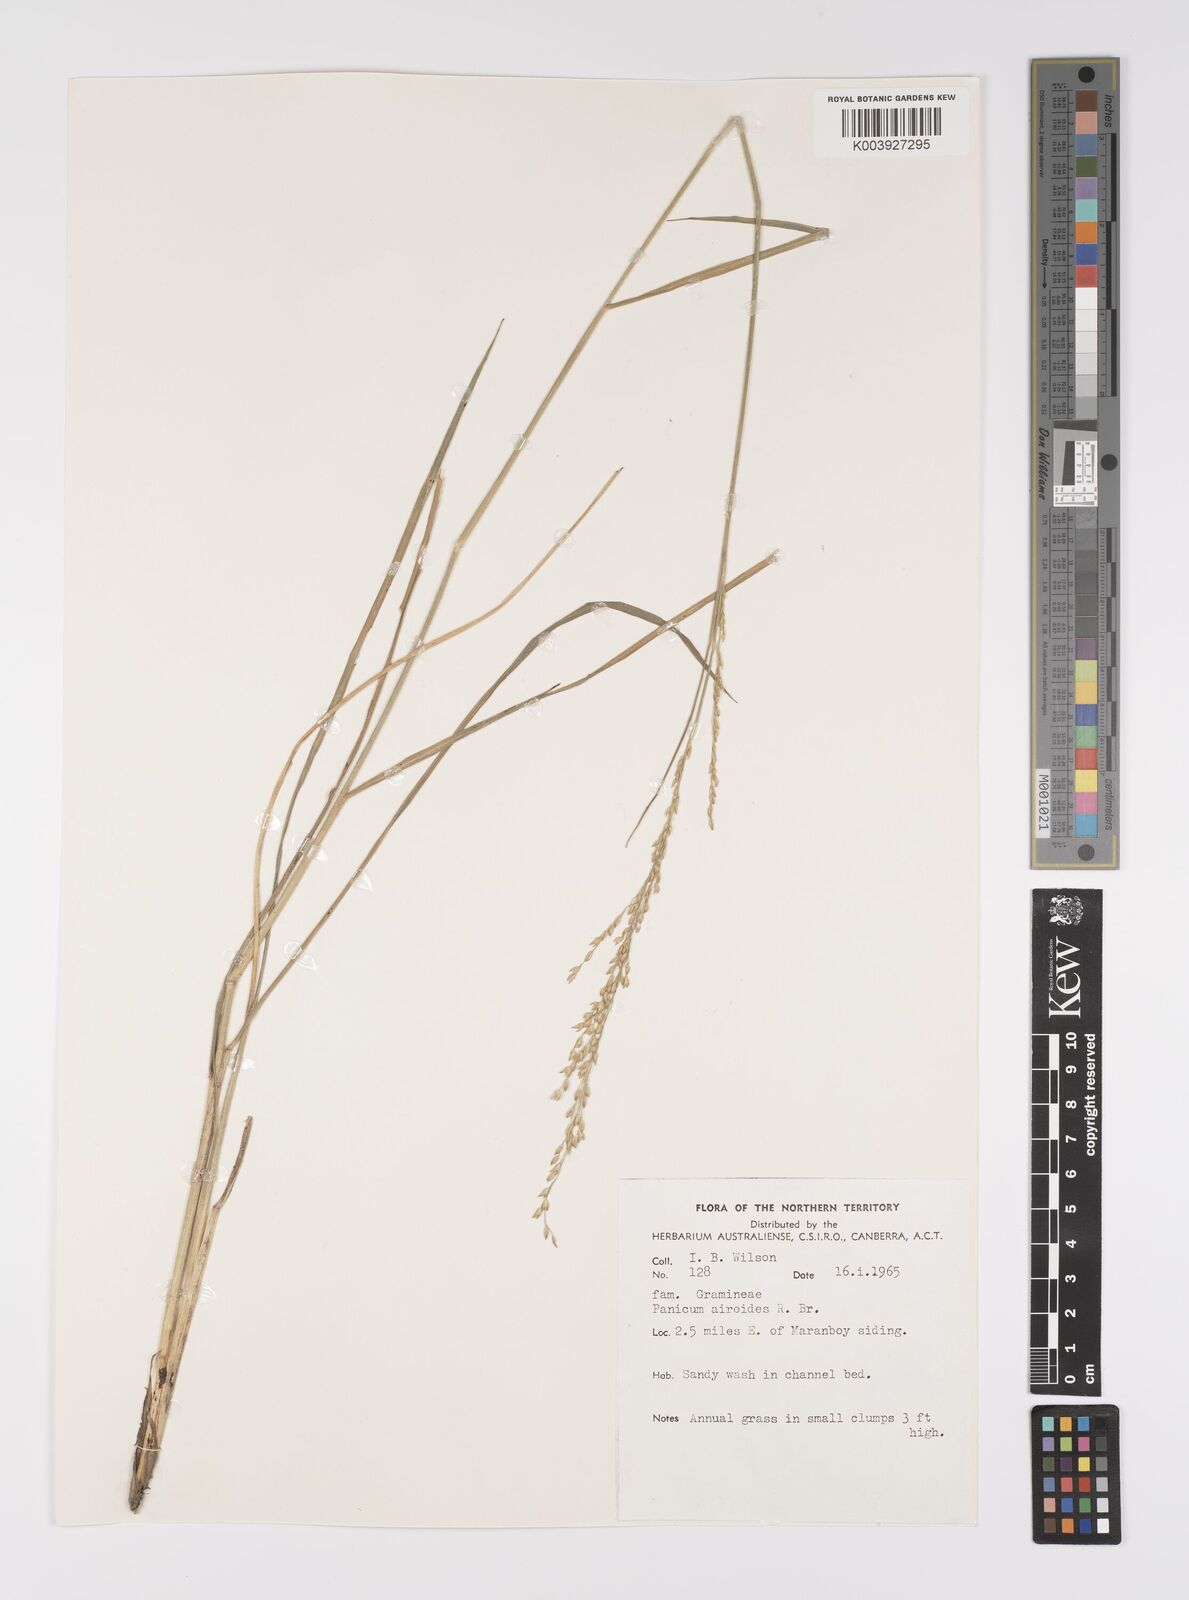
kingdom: Plantae
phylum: Tracheophyta
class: Liliopsida
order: Poales
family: Poaceae
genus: Whiteochloa
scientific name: Whiteochloa airoides
